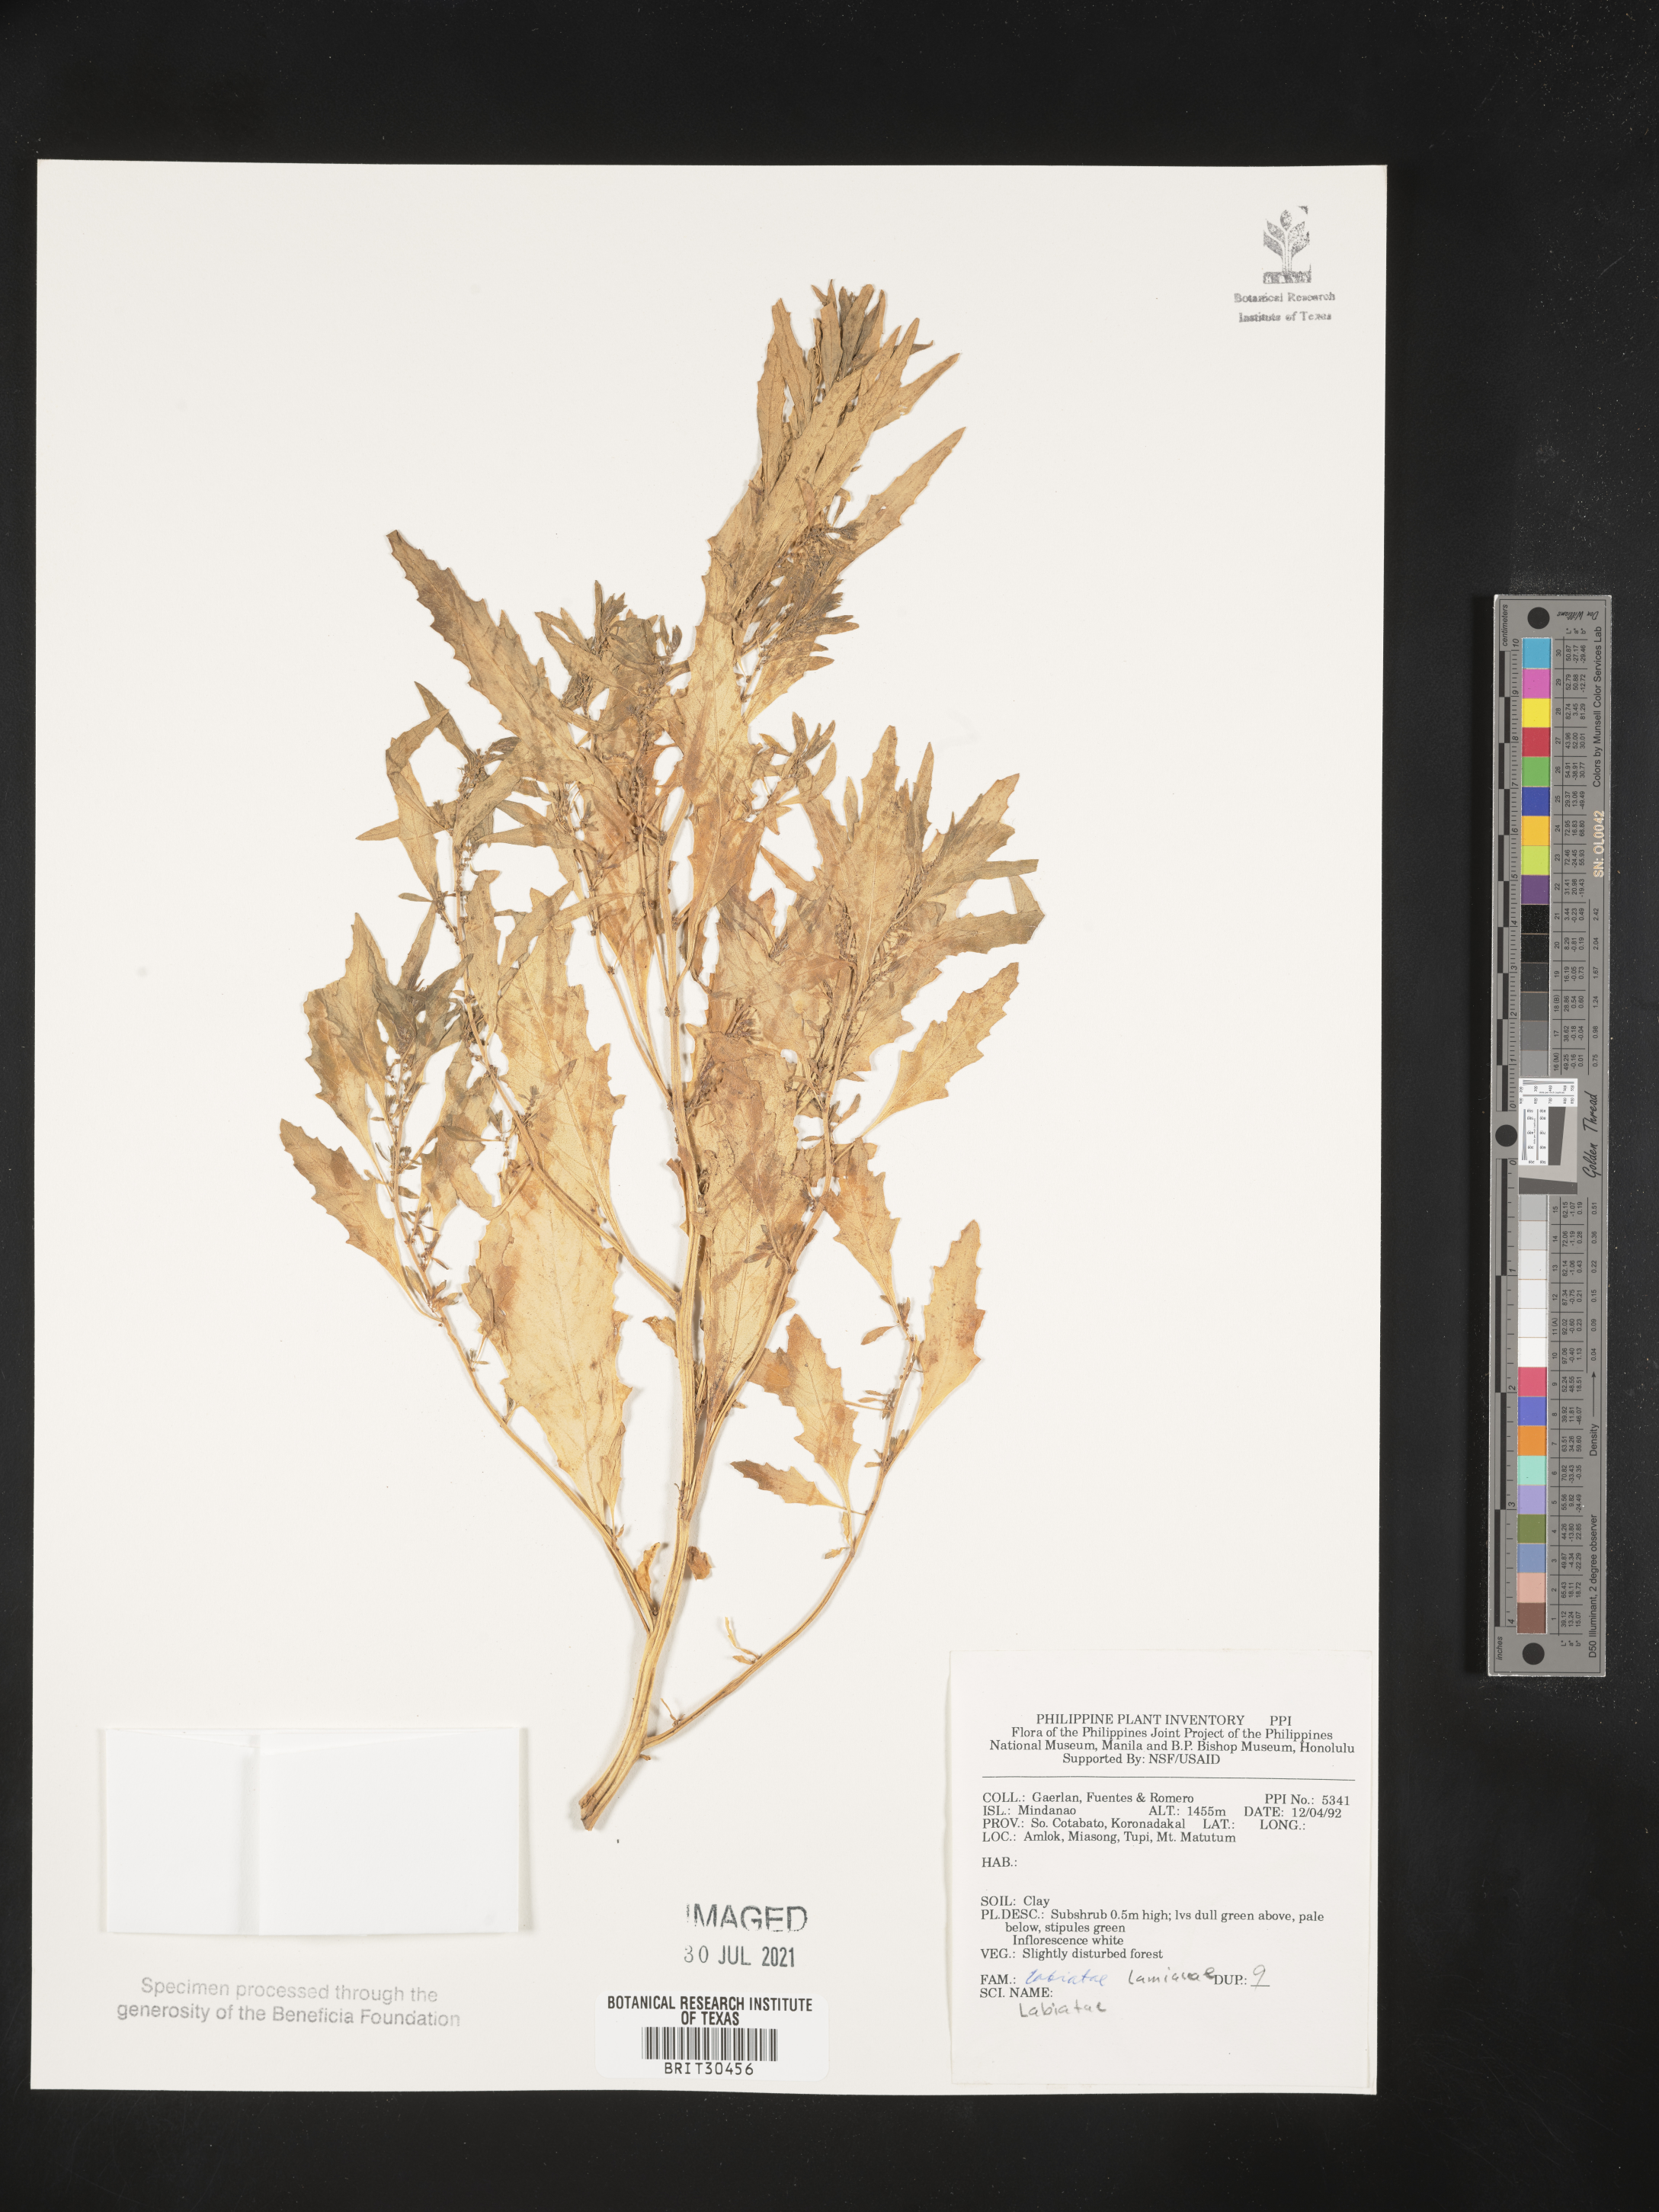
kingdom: Plantae
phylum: Tracheophyta
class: Magnoliopsida
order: Lamiales
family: Lamiaceae
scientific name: Lamiaceae
